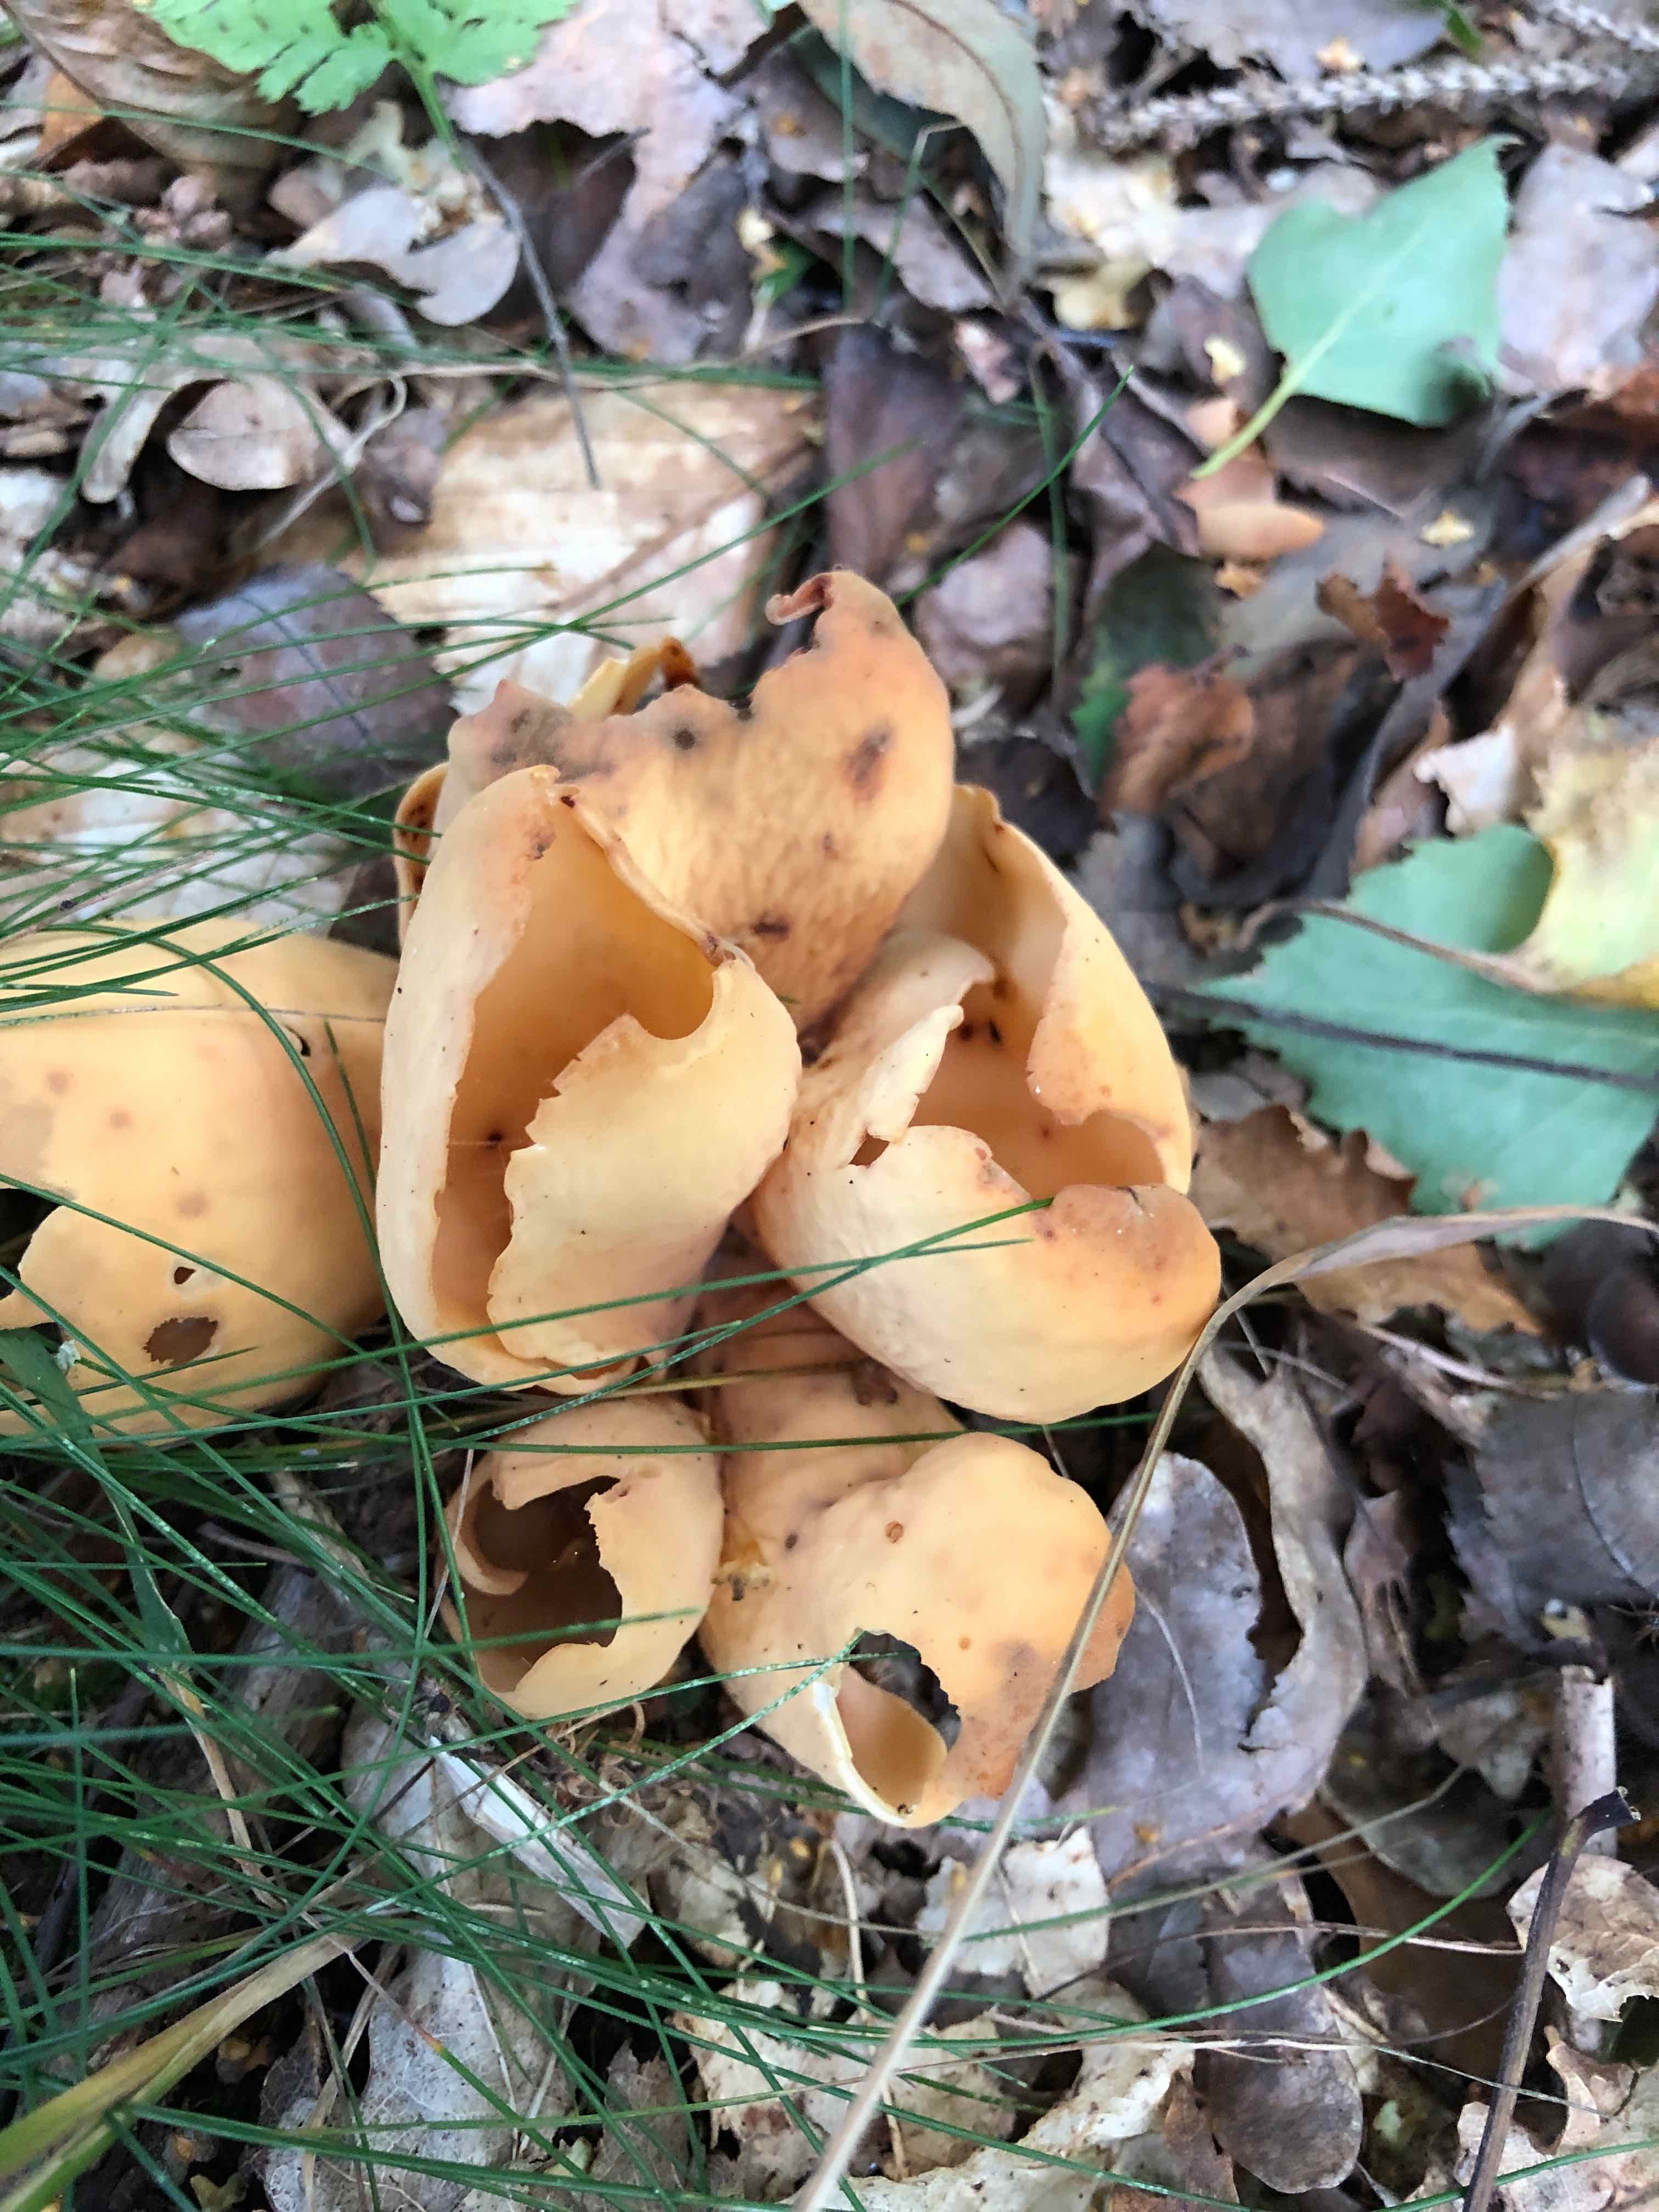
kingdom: Fungi
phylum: Ascomycota
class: Pezizomycetes
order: Pezizales
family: Otideaceae
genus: Otidea
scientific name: Otidea onotica
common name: æsel-ørebæger
